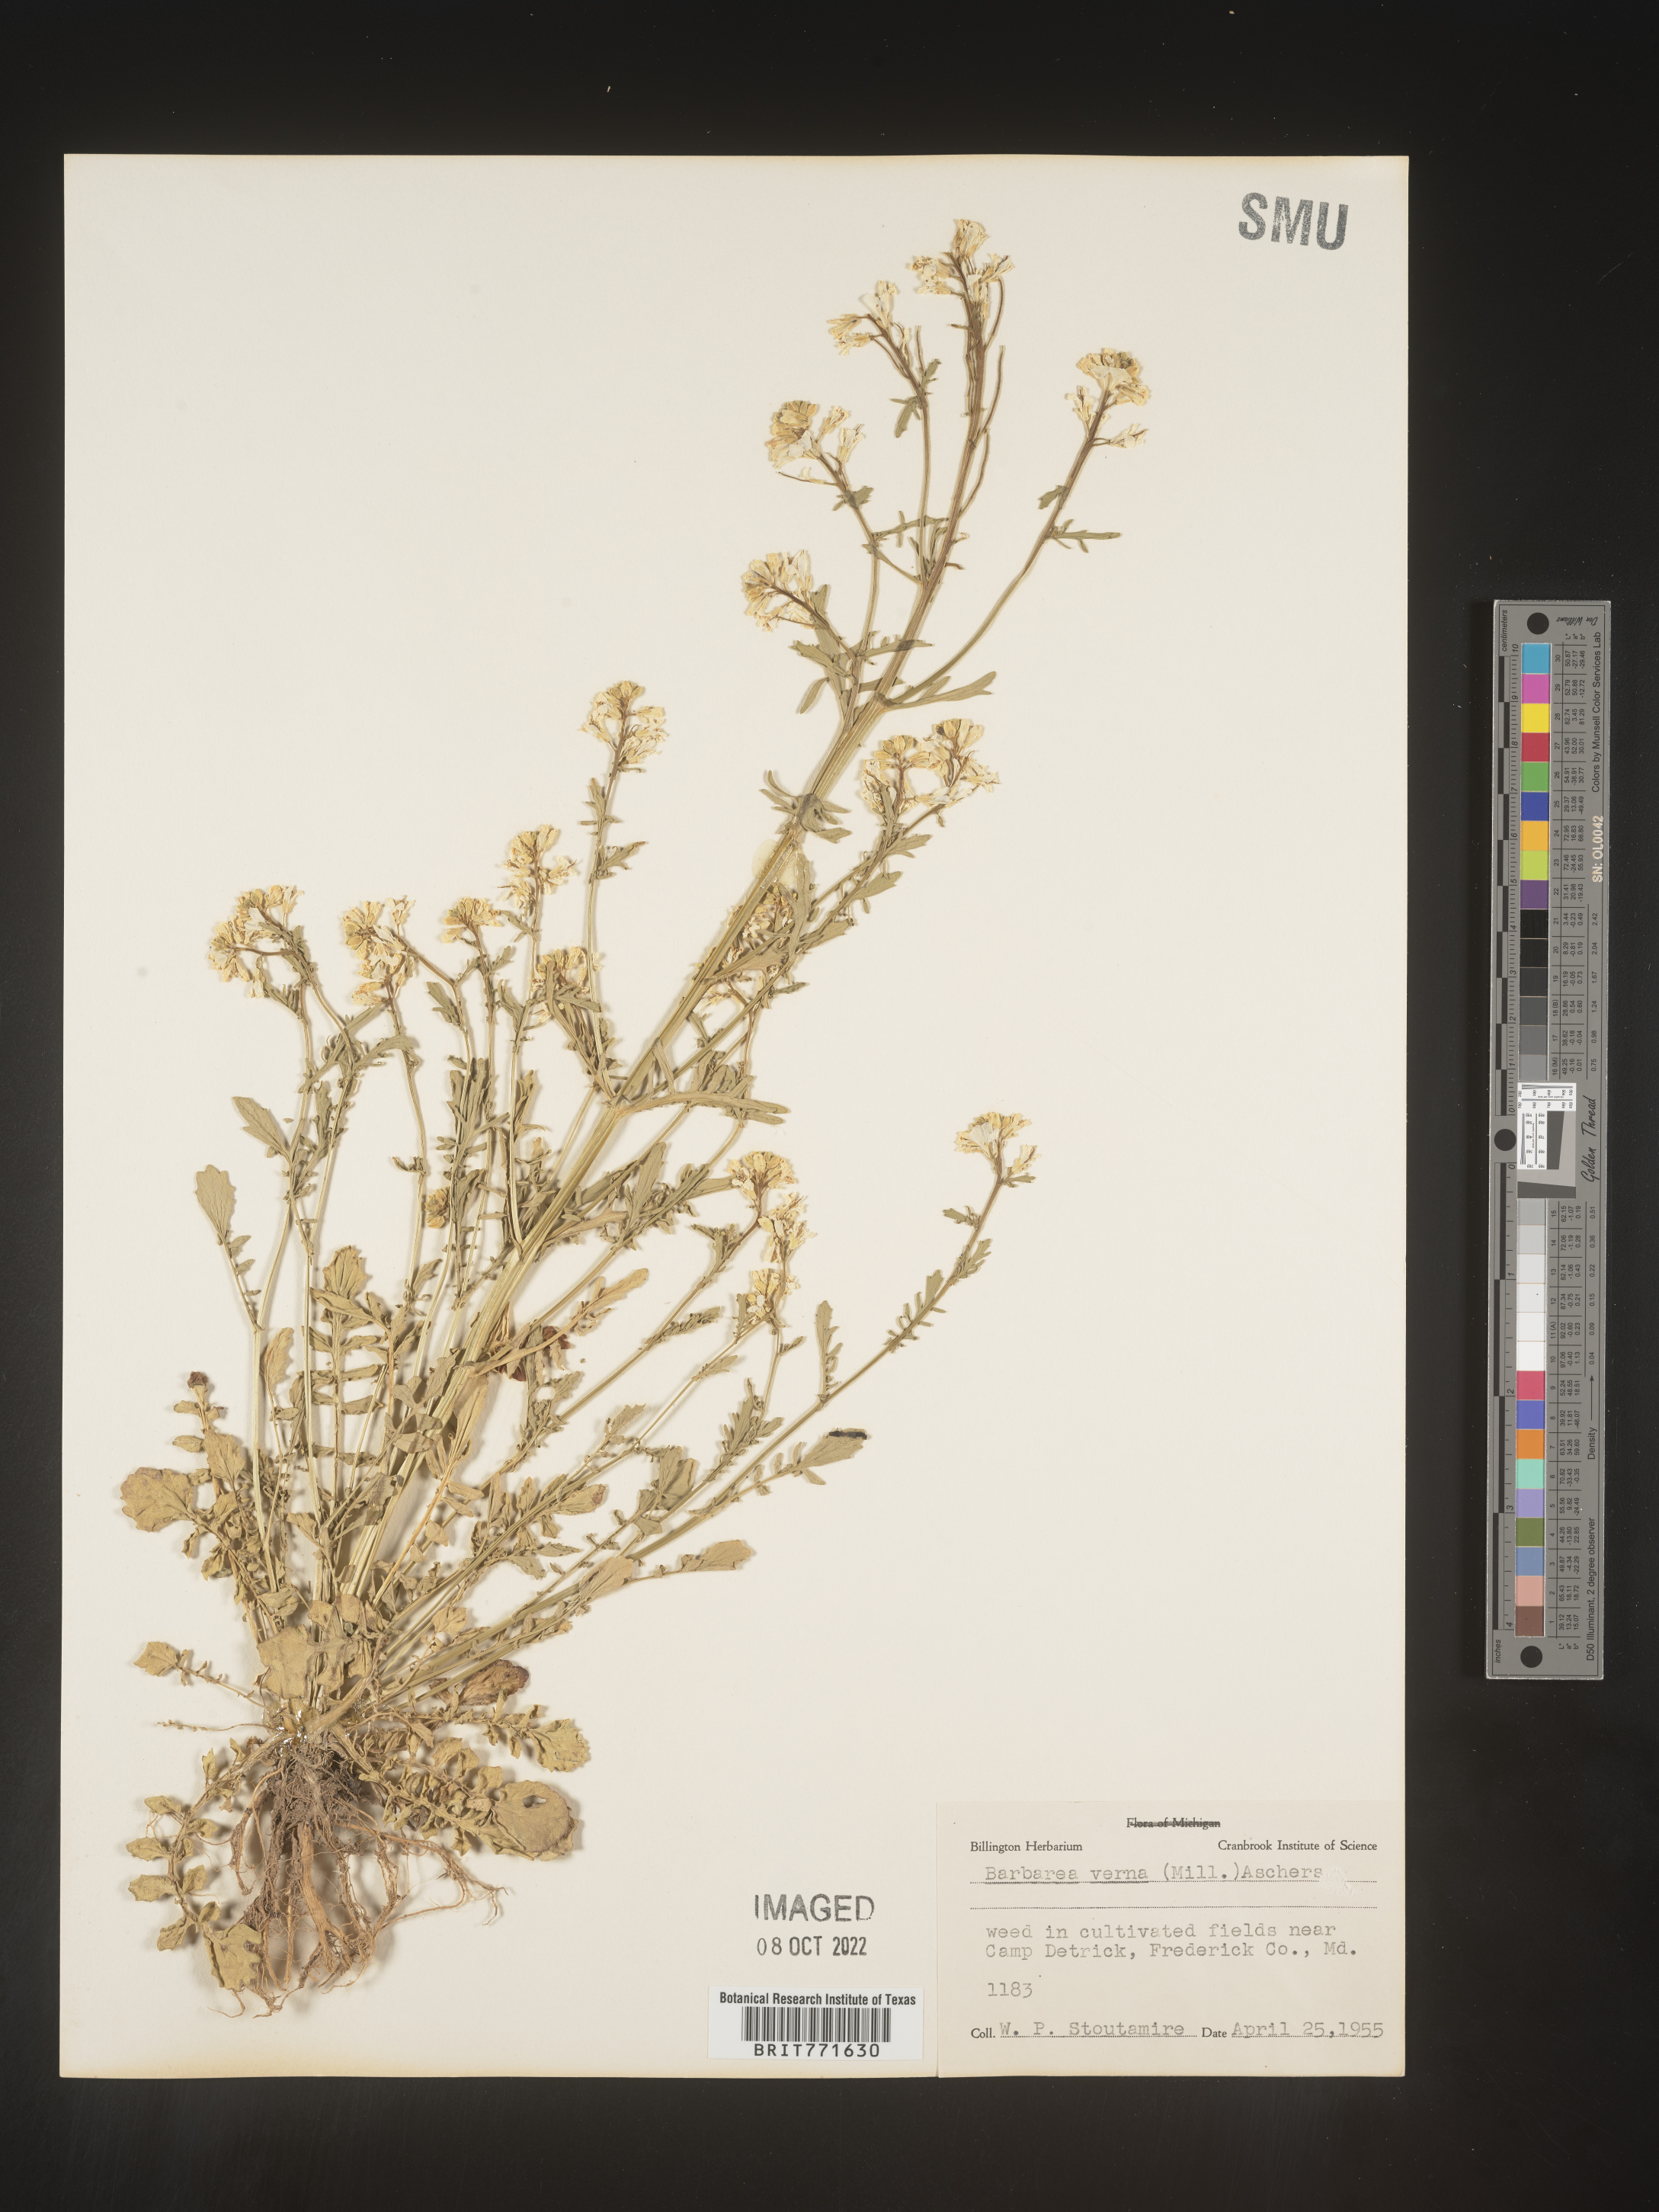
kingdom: Plantae
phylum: Tracheophyta
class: Magnoliopsida
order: Brassicales
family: Brassicaceae
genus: Barbarea
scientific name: Barbarea verna
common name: American cress
